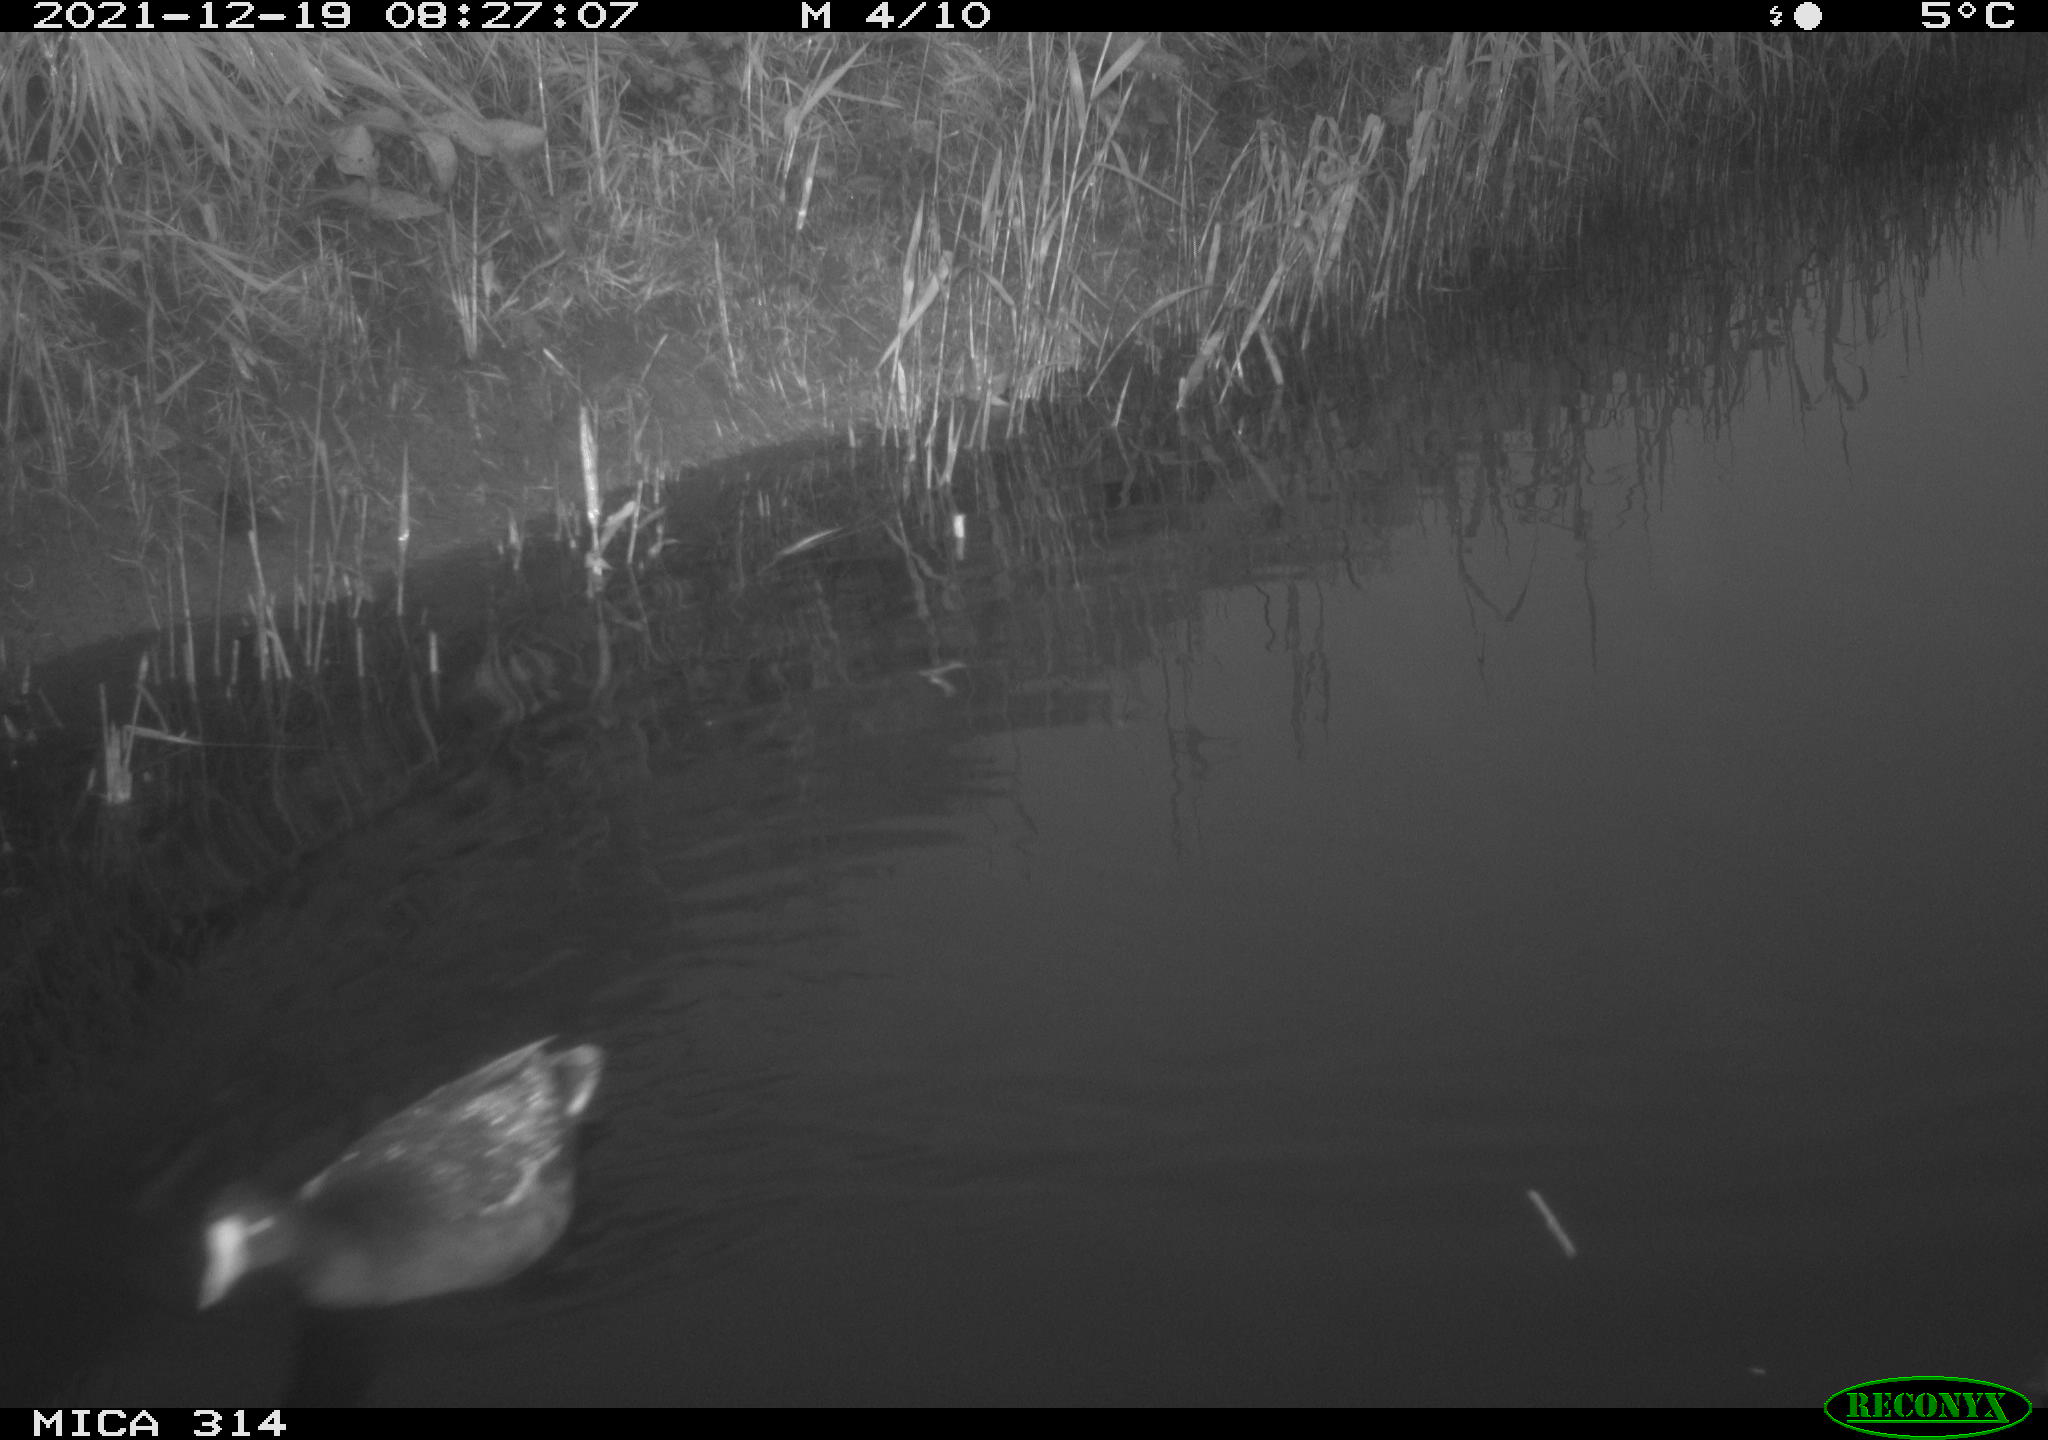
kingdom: Animalia
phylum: Chordata
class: Aves
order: Gruiformes
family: Rallidae
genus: Gallinula
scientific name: Gallinula chloropus
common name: Common moorhen
